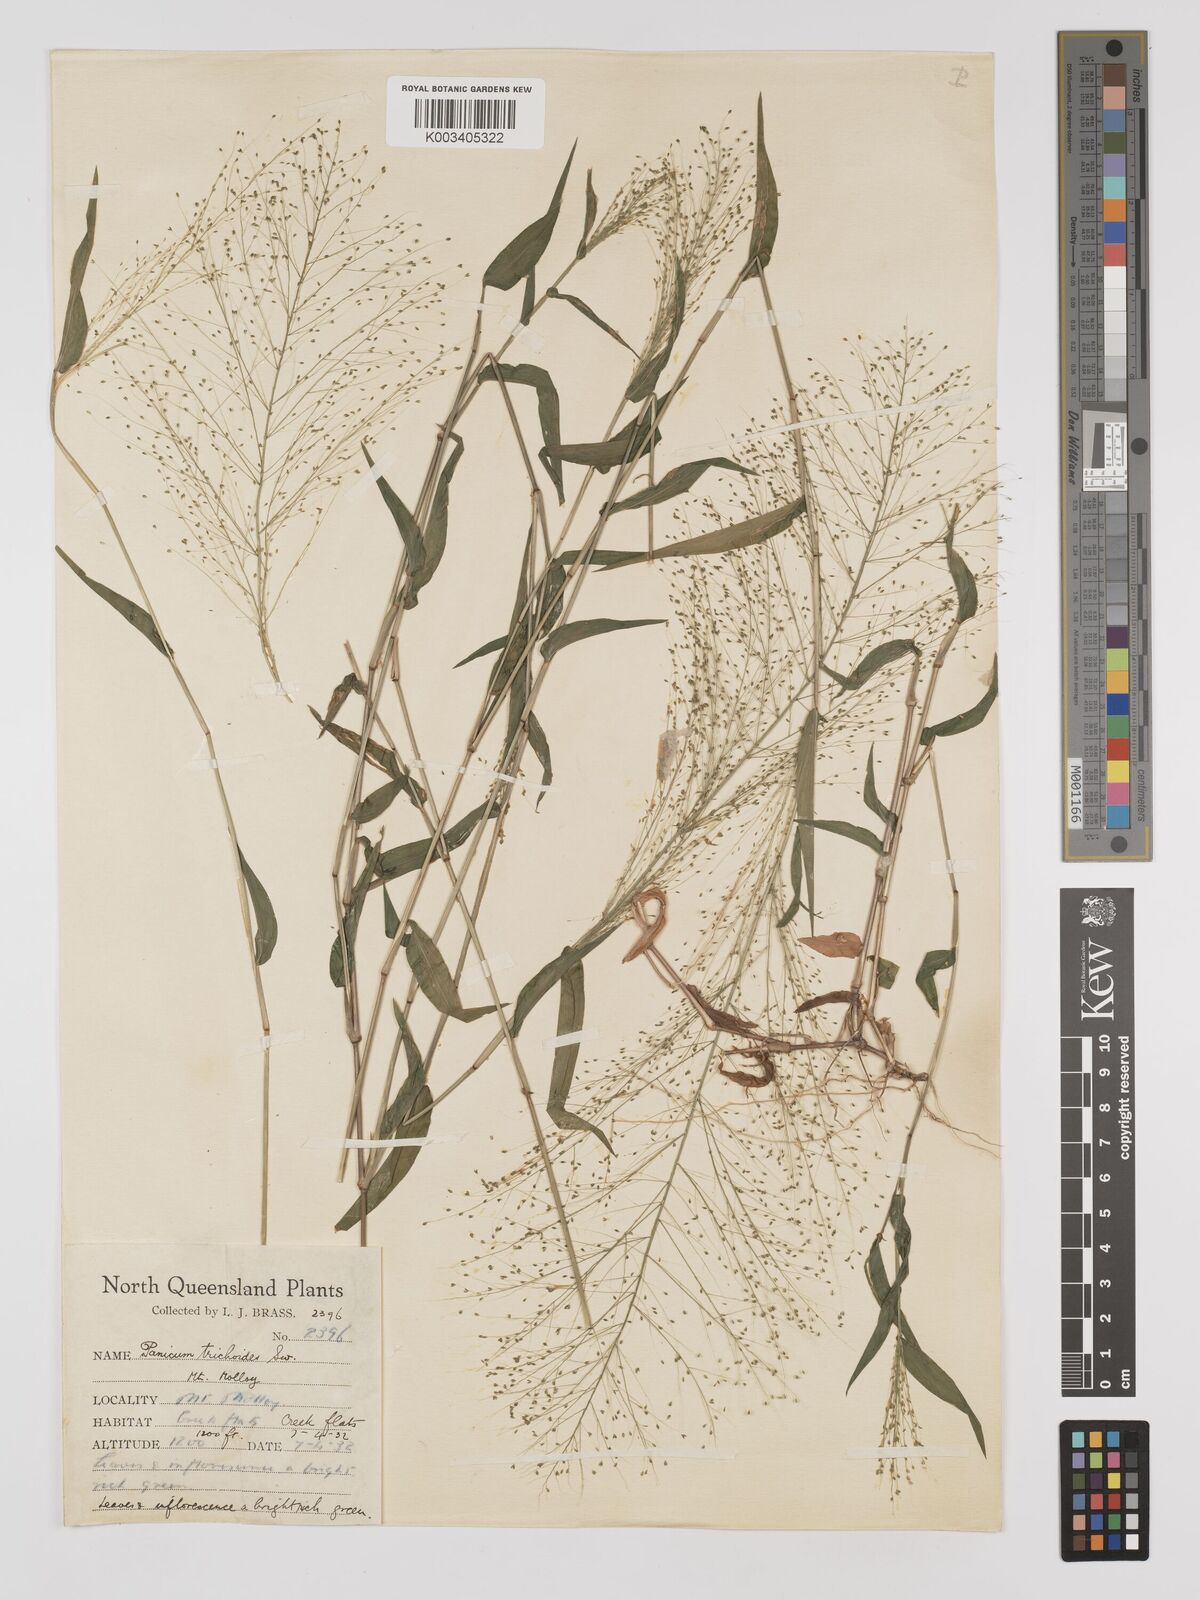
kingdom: Plantae
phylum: Tracheophyta
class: Liliopsida
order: Poales
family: Poaceae
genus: Panicum
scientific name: Panicum trichoides
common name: Tickle grass
